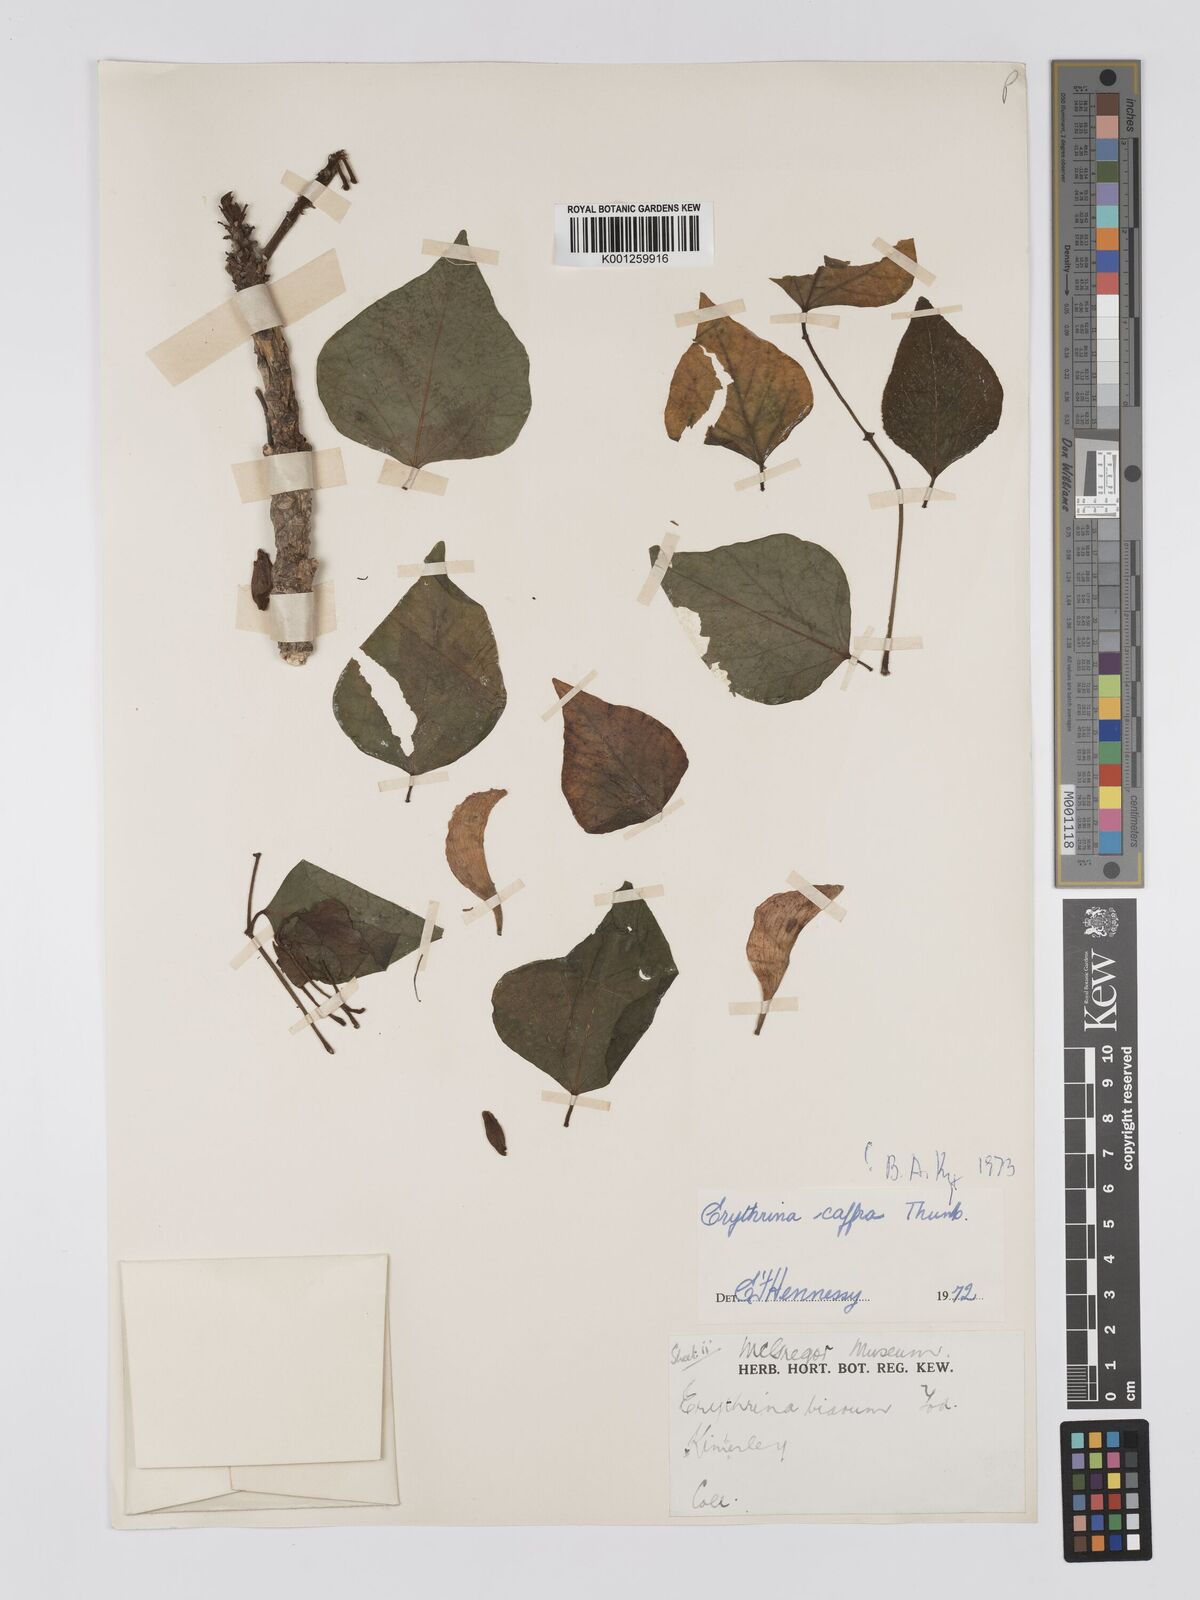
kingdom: Plantae
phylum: Tracheophyta
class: Magnoliopsida
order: Fabales
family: Fabaceae
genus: Erythrina
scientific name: Erythrina caffra
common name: Coast coral tree
